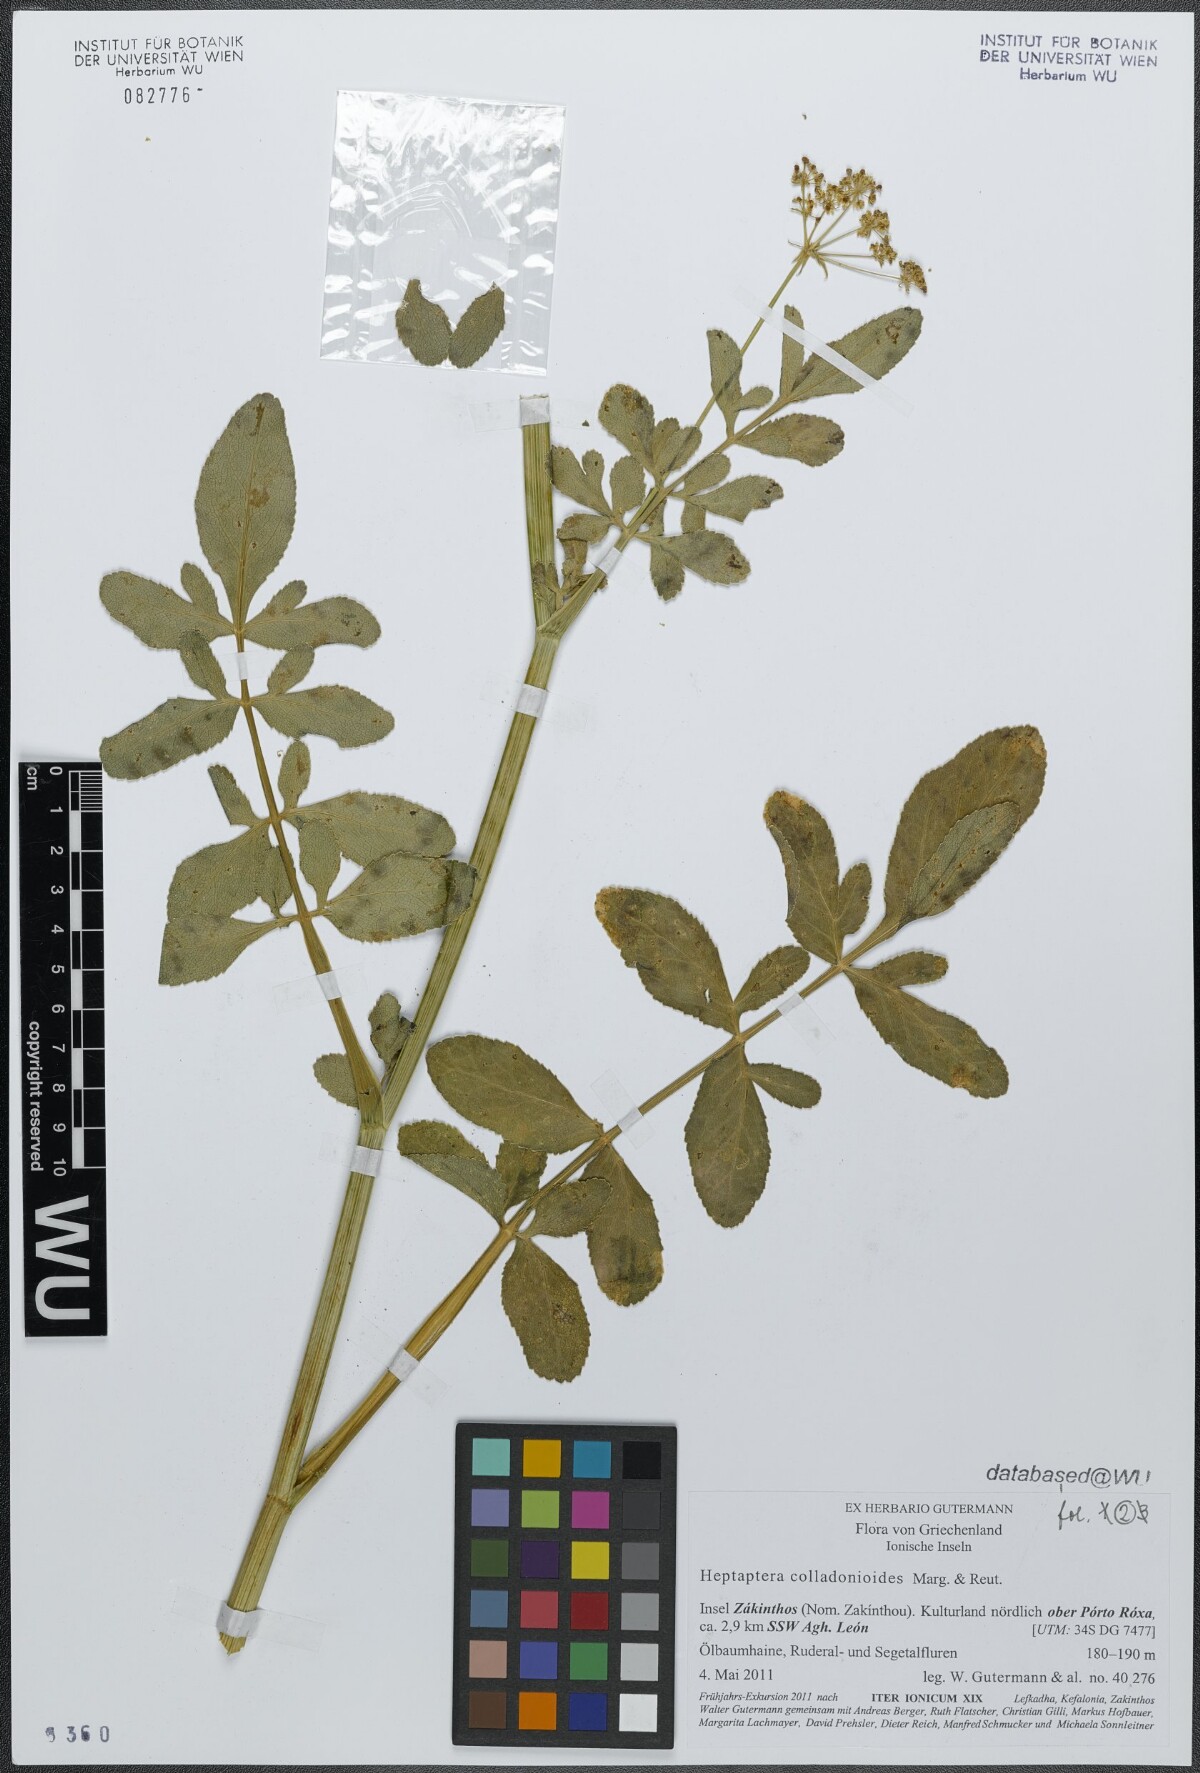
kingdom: Plantae
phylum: Tracheophyta
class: Magnoliopsida
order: Apiales
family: Apiaceae
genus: Heptaptera
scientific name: Heptaptera colladonioides
